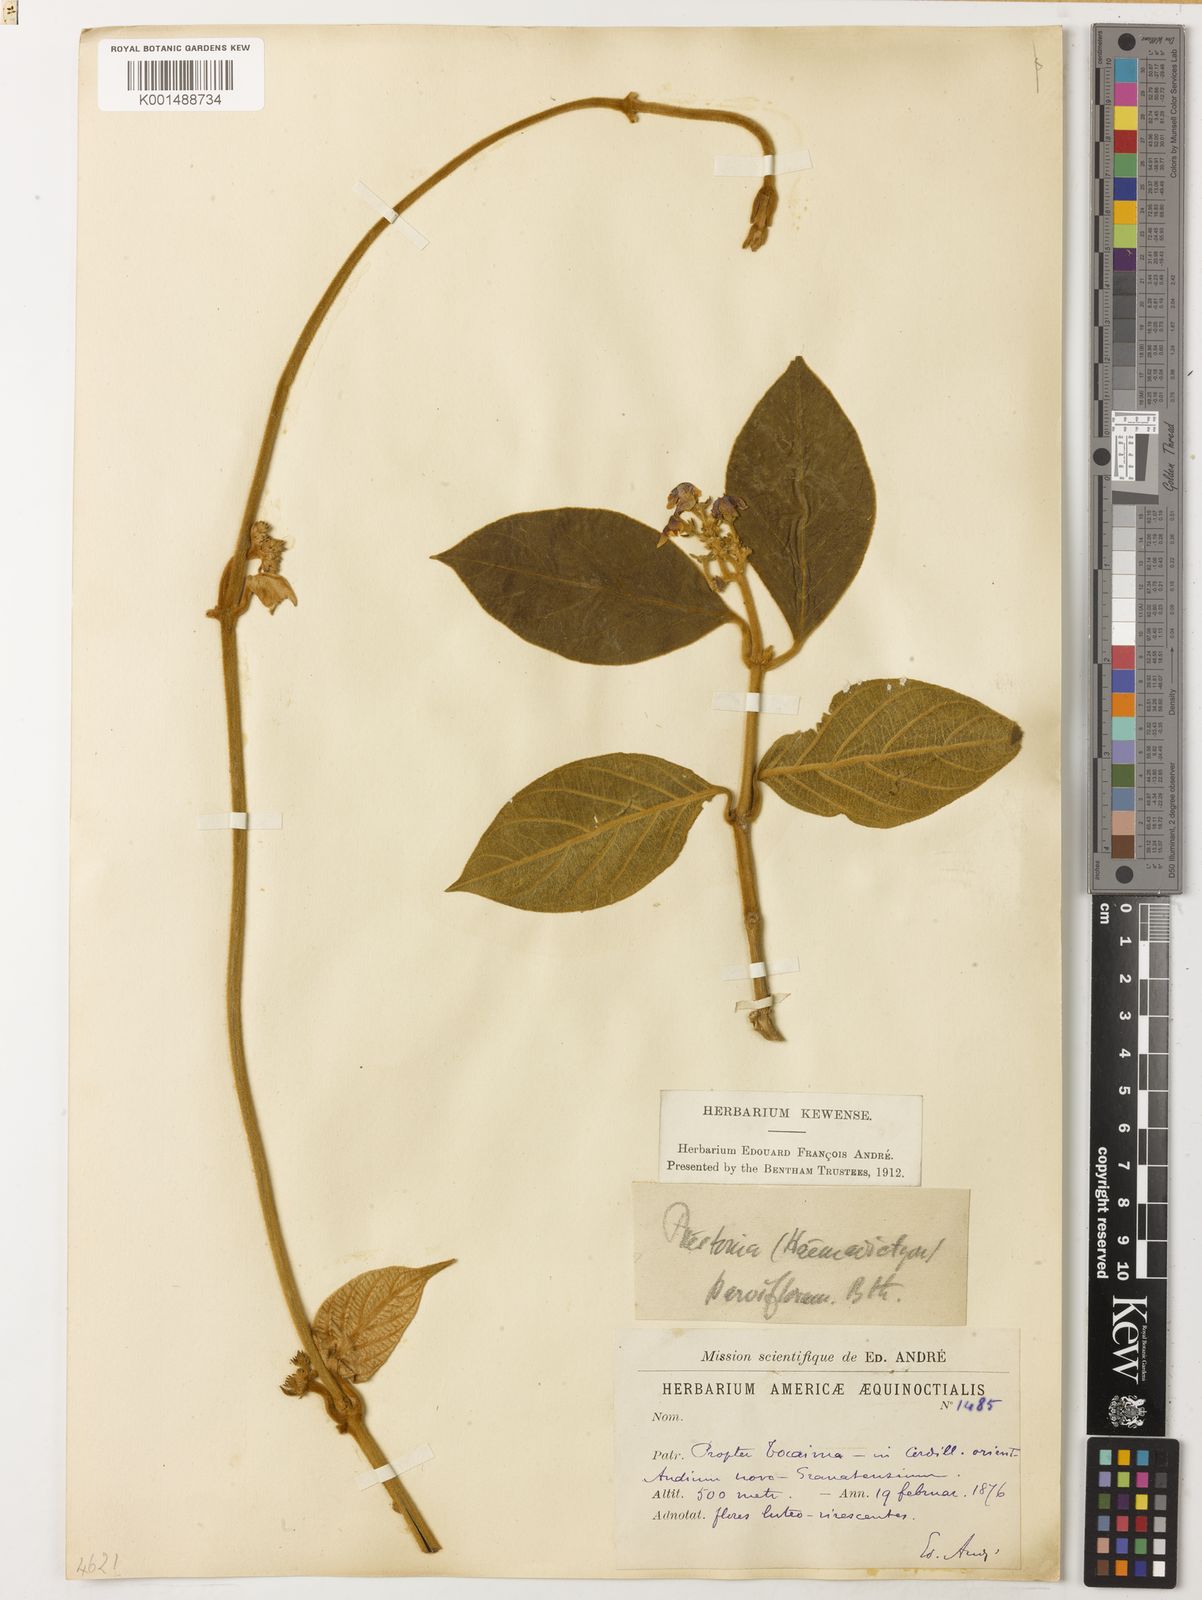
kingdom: Plantae
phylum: Tracheophyta
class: Magnoliopsida
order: Gentianales
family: Apocynaceae
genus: Prestonia
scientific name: Prestonia parviflora
